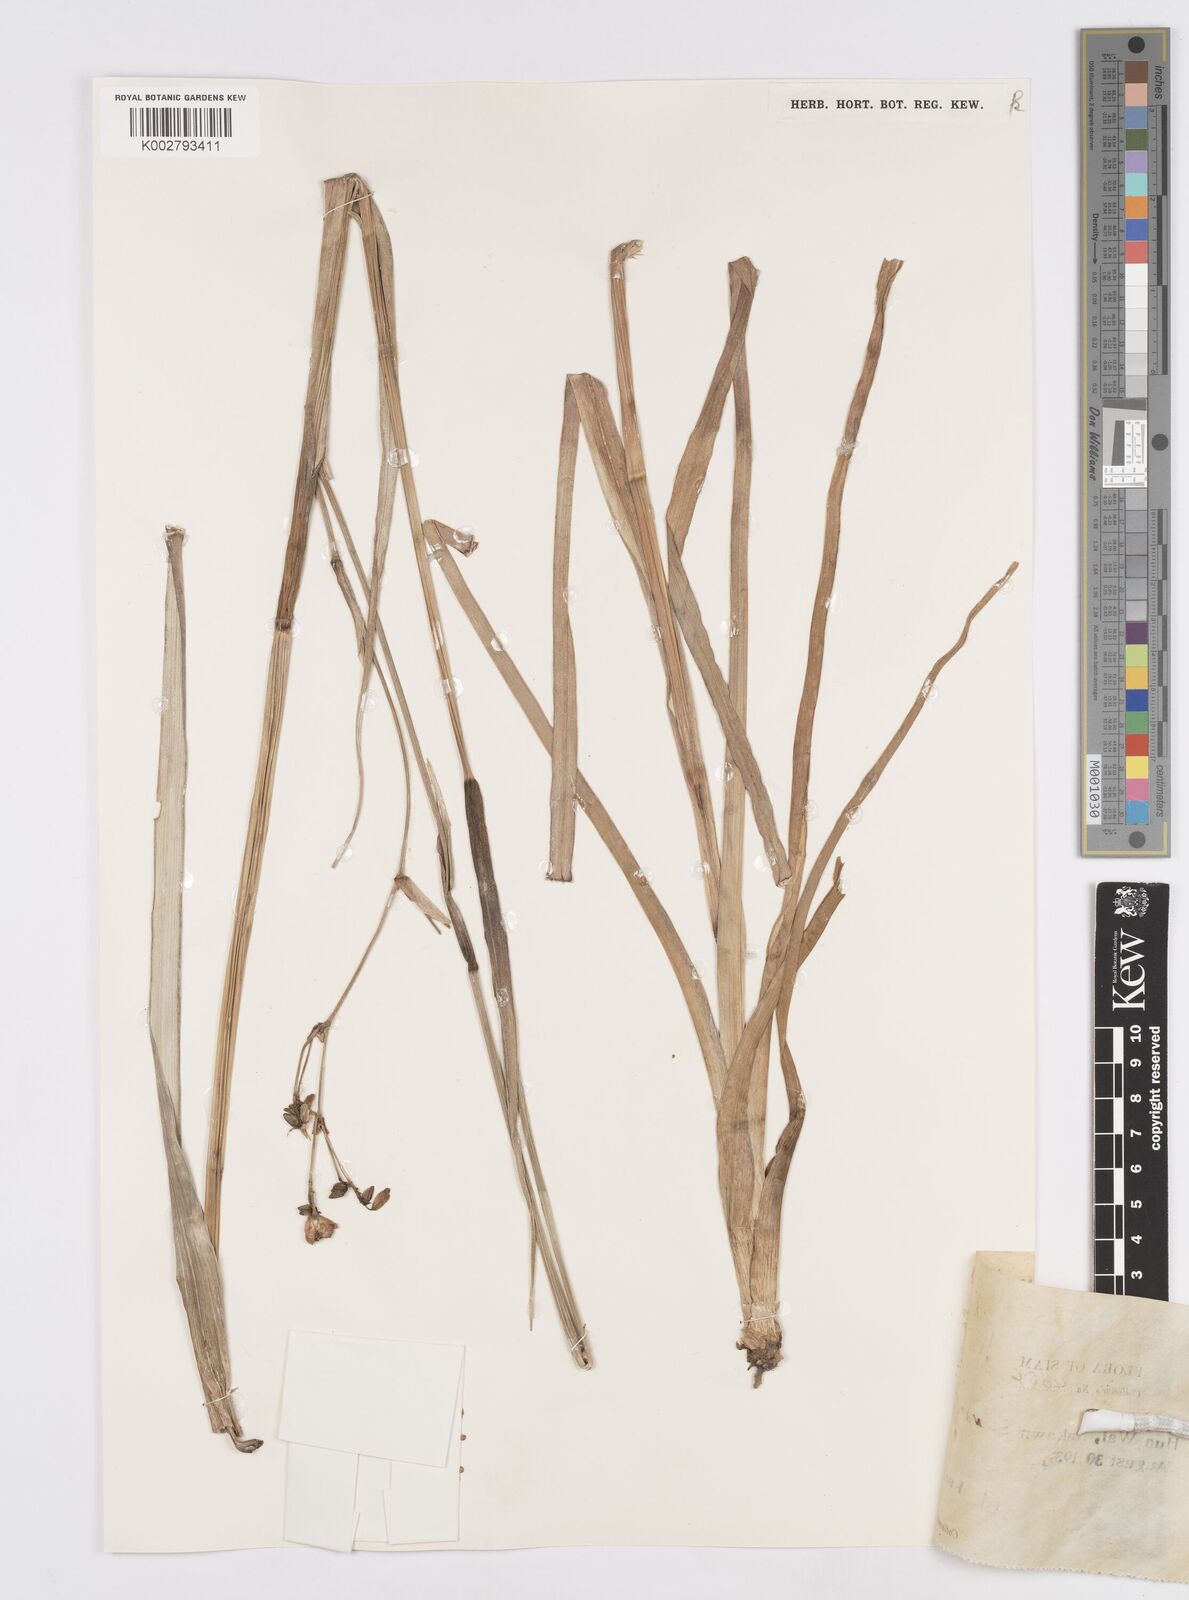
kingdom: Plantae
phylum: Tracheophyta
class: Liliopsida
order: Commelinales
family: Commelinaceae
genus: Murdannia
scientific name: Murdannia gigantea
